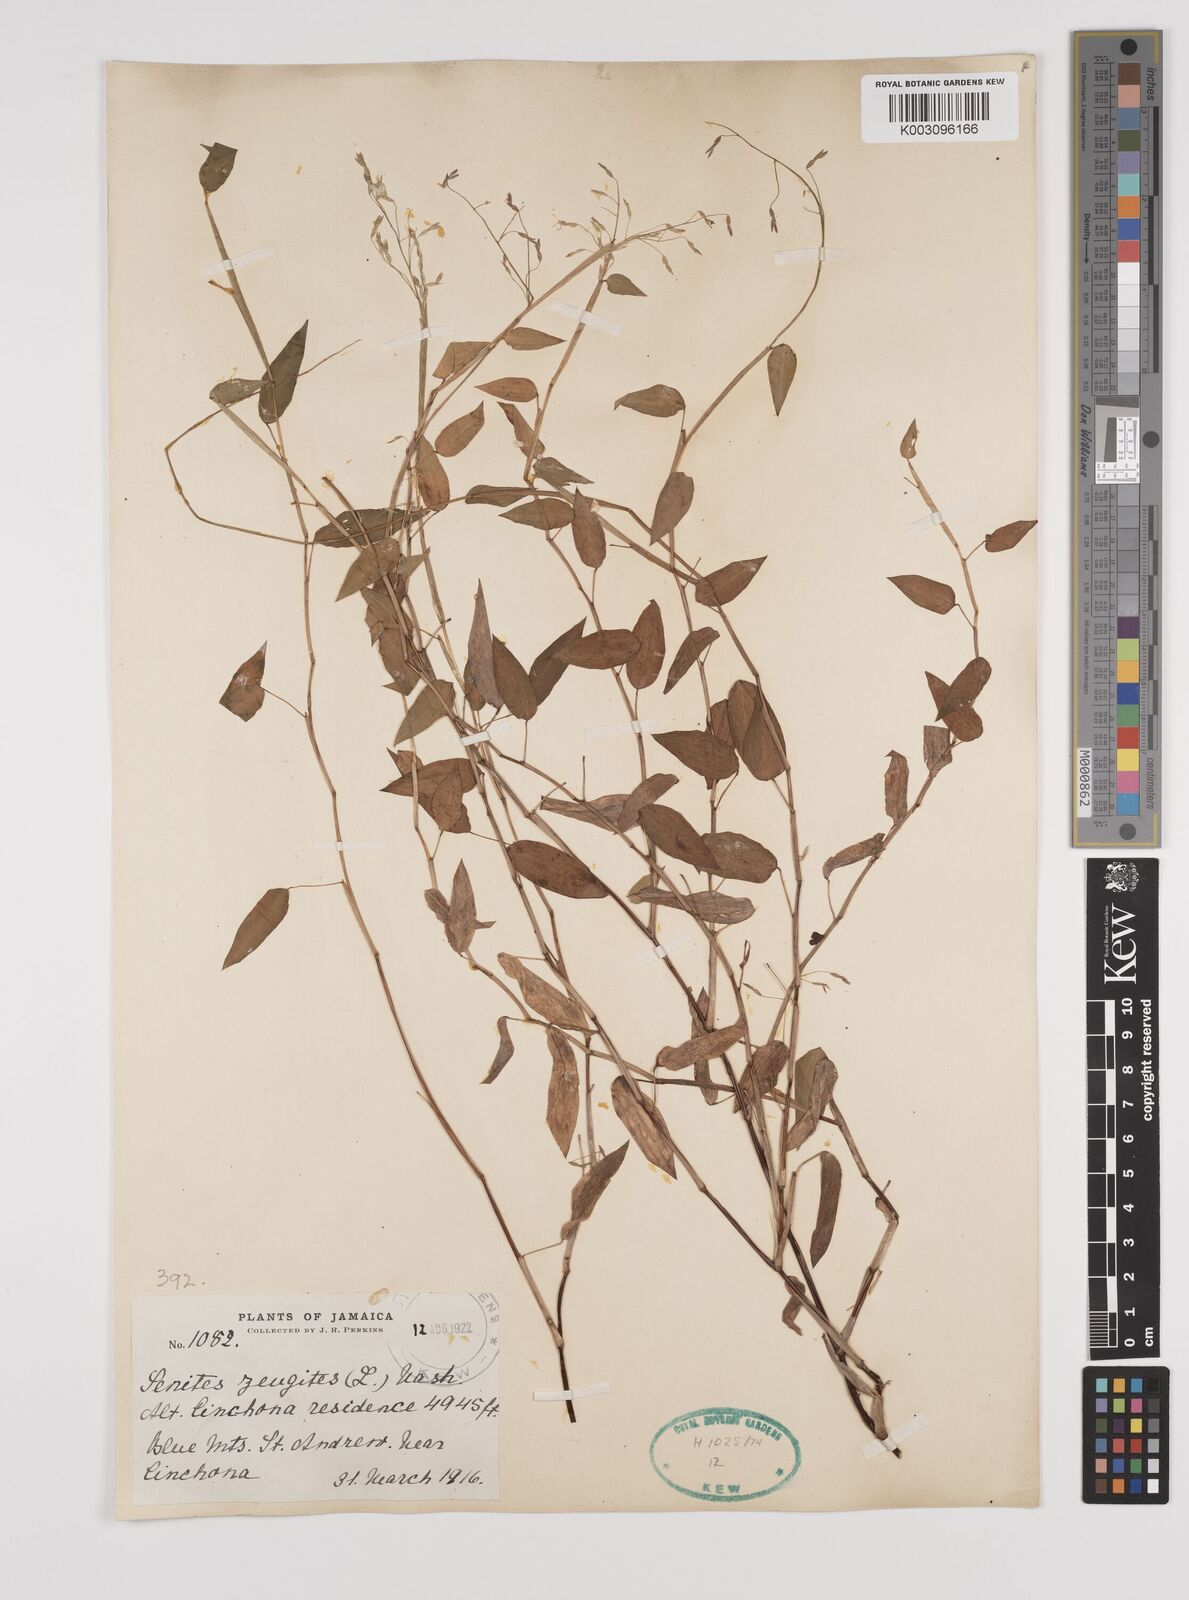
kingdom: Plantae
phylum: Tracheophyta
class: Liliopsida
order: Poales
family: Poaceae
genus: Zeugites
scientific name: Zeugites americanus
